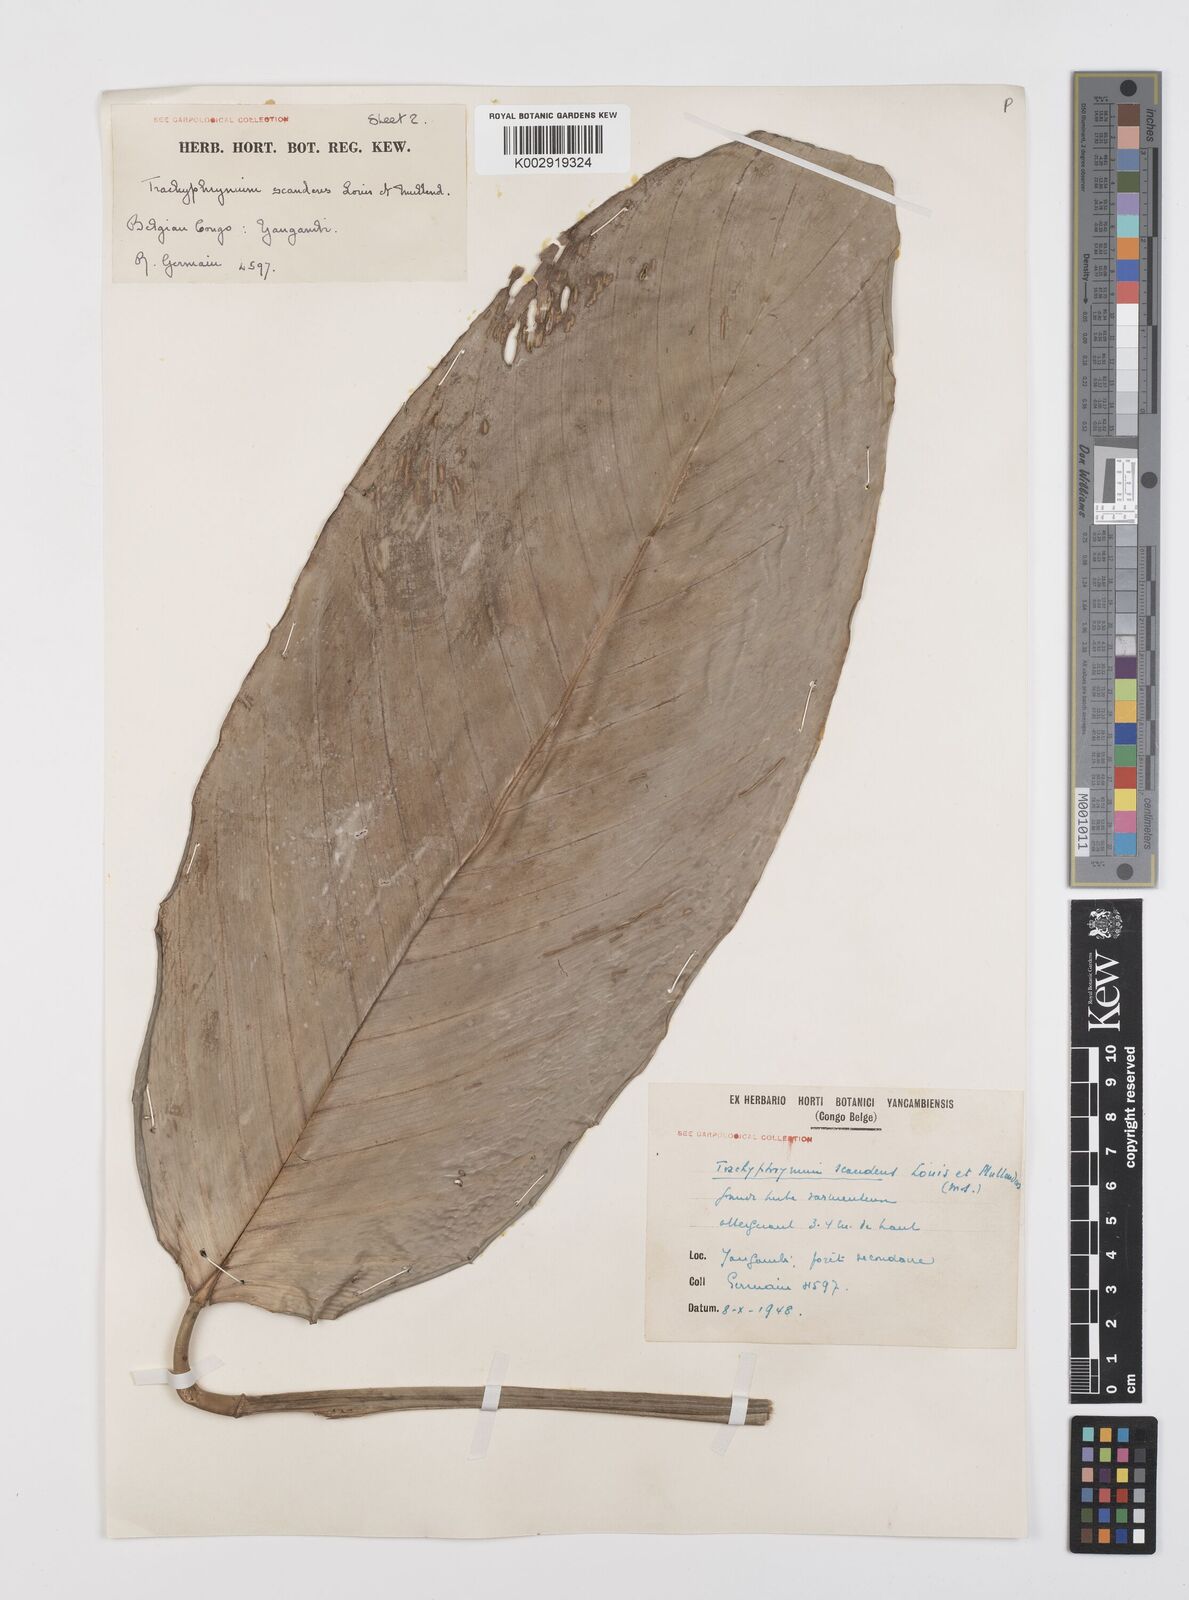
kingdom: Plantae
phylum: Tracheophyta
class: Liliopsida
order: Zingiberales
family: Marantaceae
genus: Hypselodelphys
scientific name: Hypselodelphys scandens
